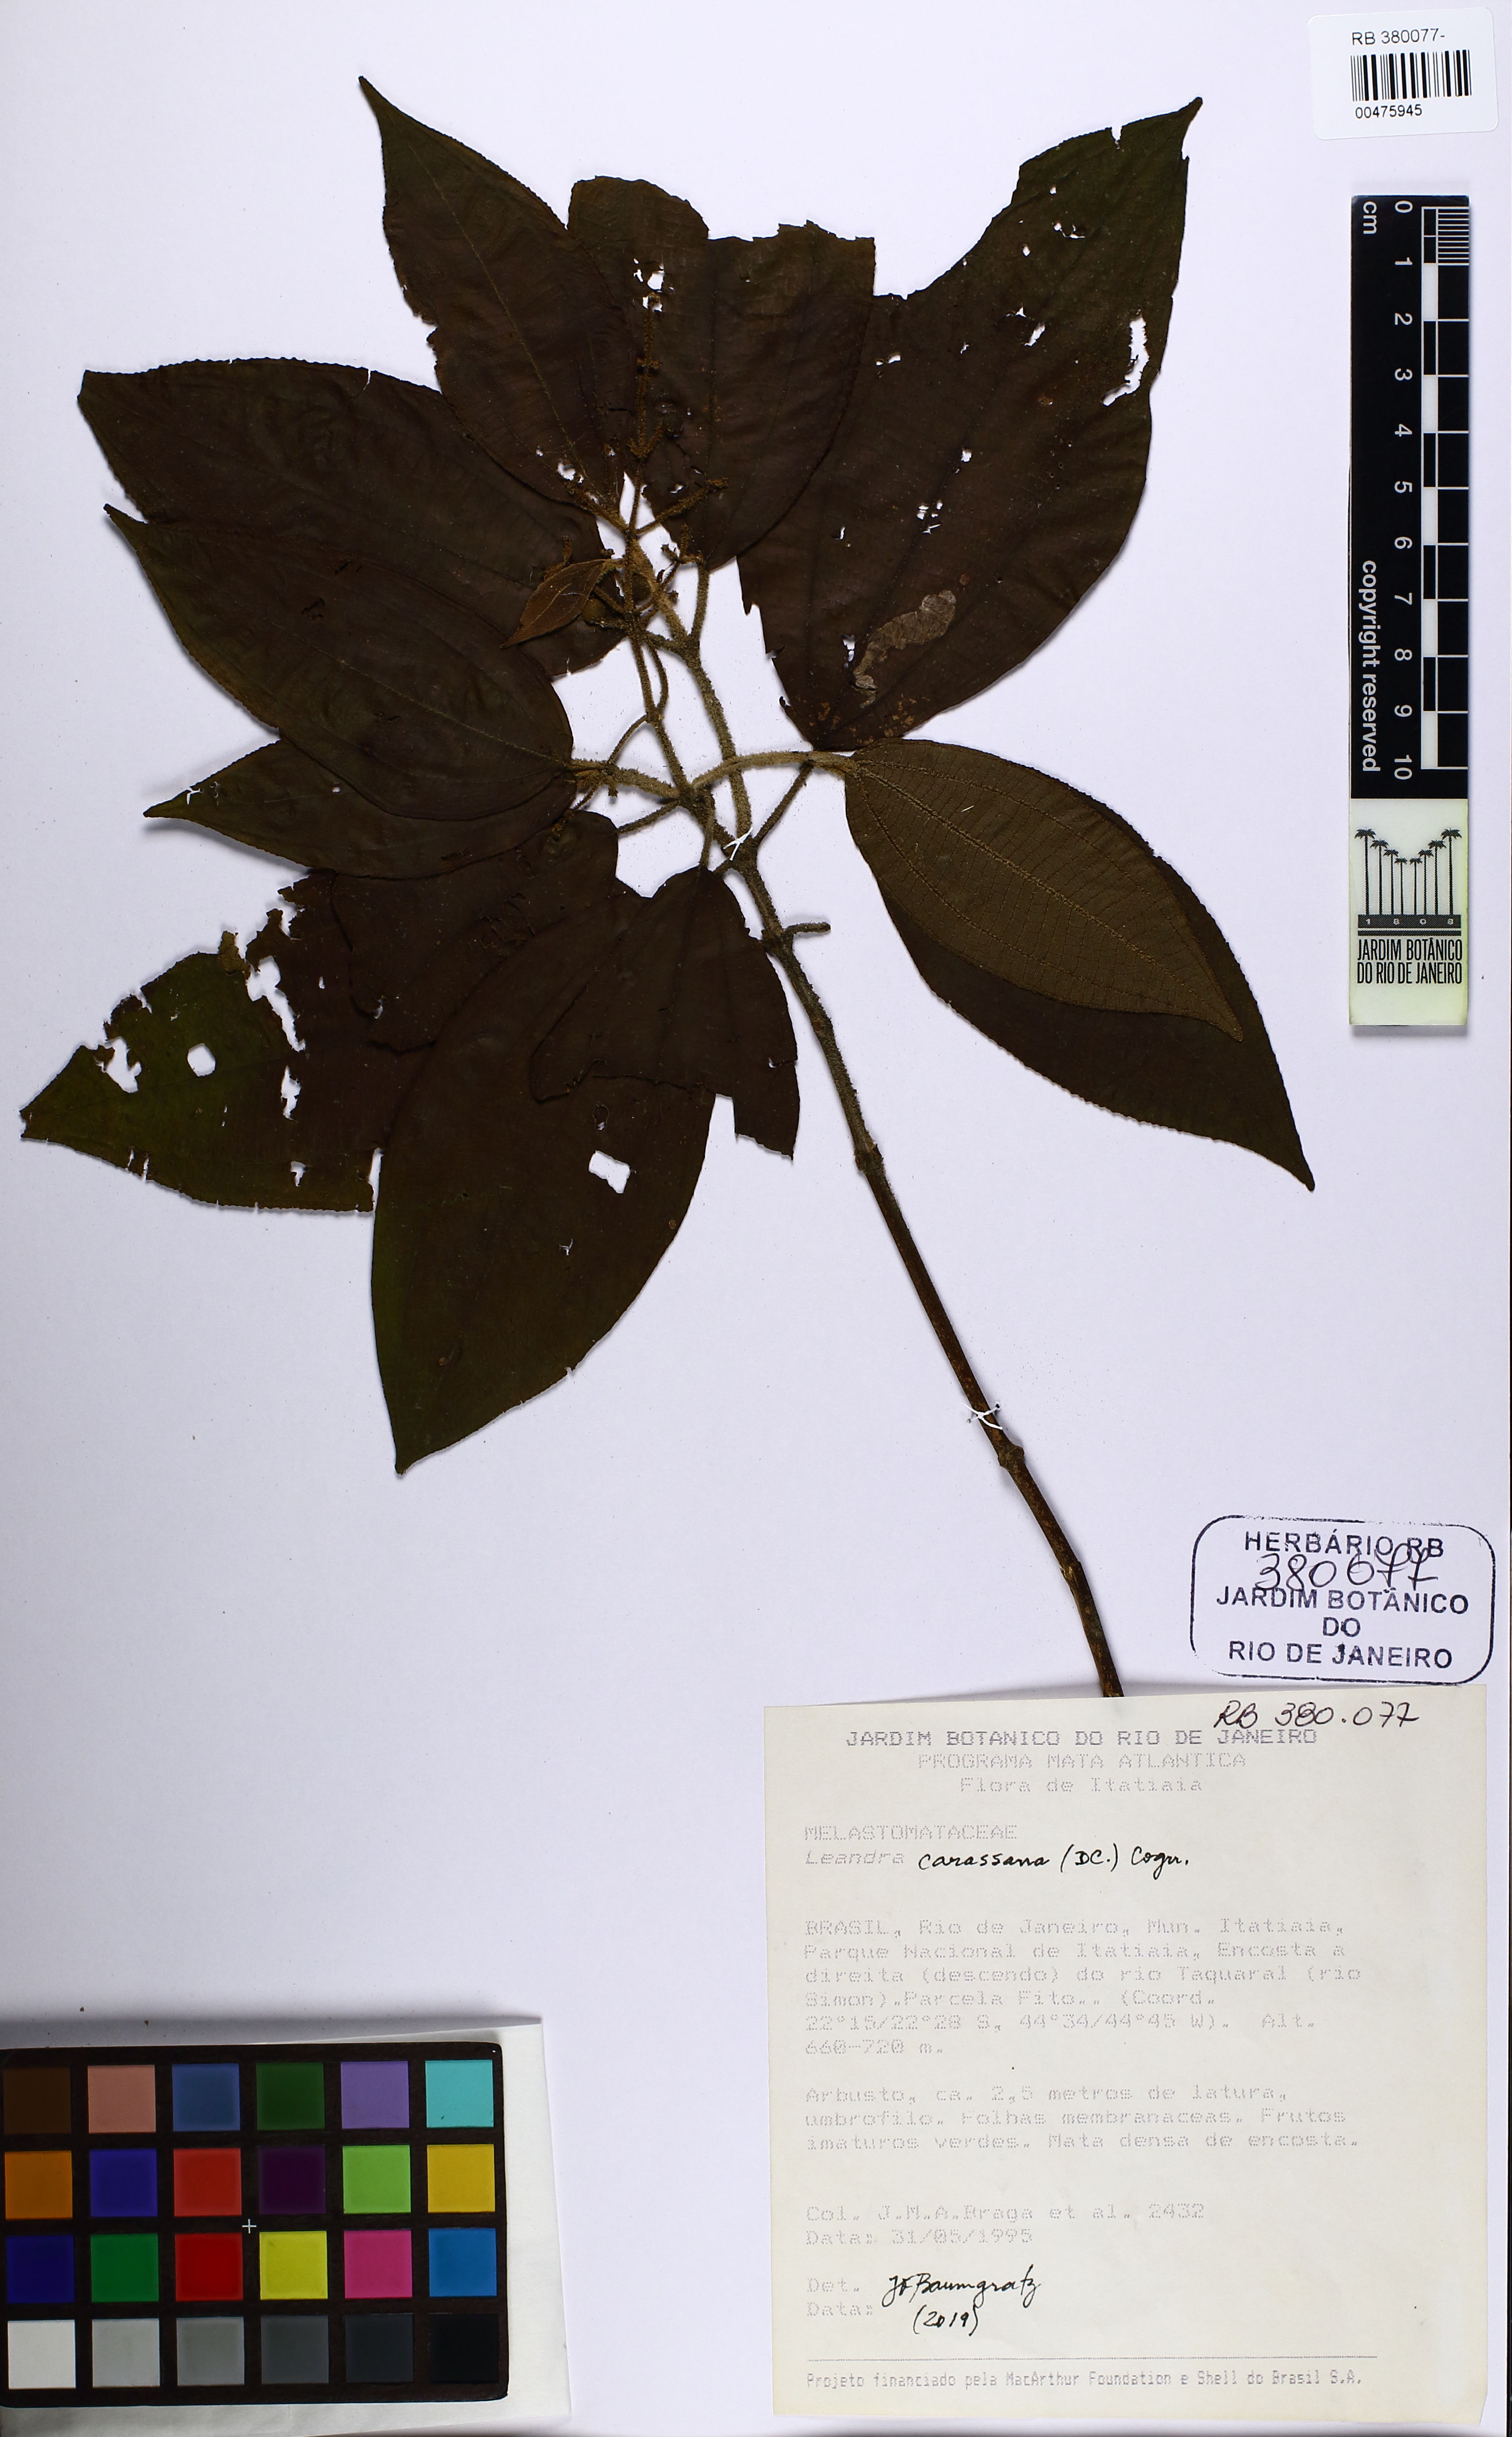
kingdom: Plantae
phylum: Tracheophyta
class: Magnoliopsida
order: Myrtales
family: Melastomataceae
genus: Miconia
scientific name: Miconia sublanata
